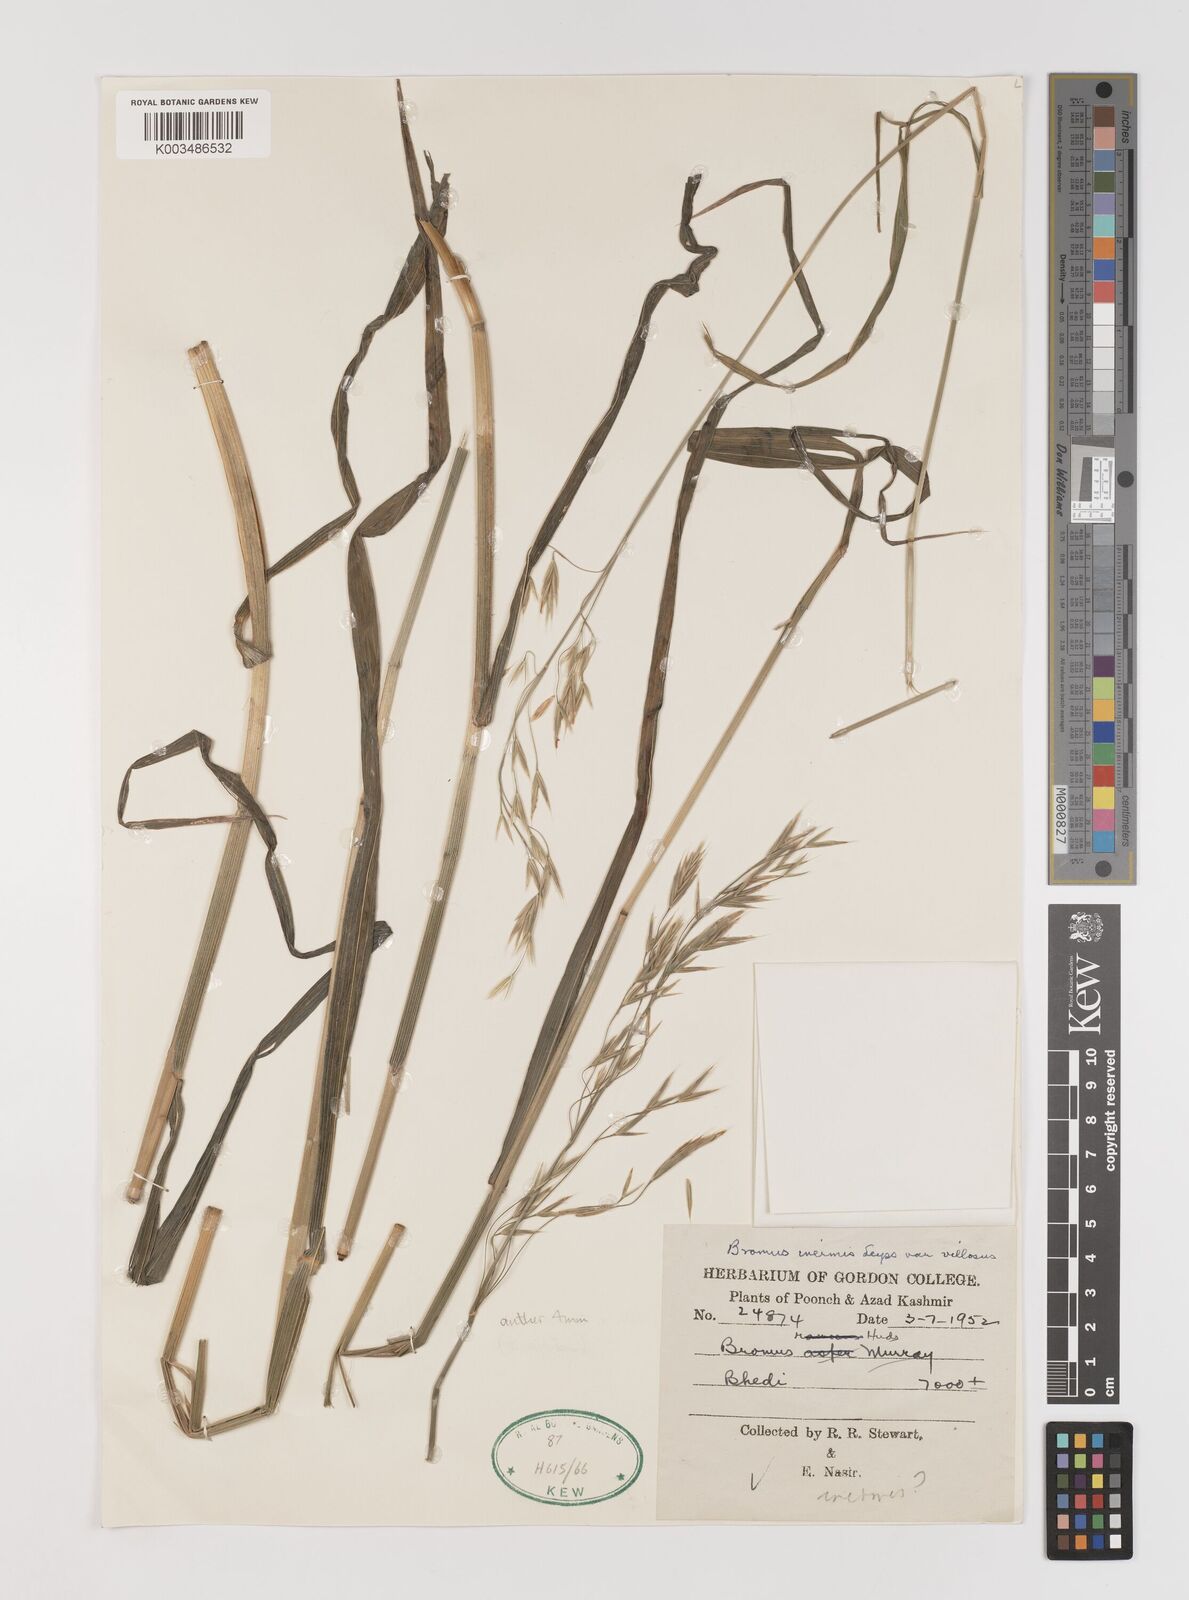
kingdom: Plantae
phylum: Tracheophyta
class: Liliopsida
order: Poales
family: Poaceae
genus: Bromus
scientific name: Bromus inermis
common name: Smooth brome
